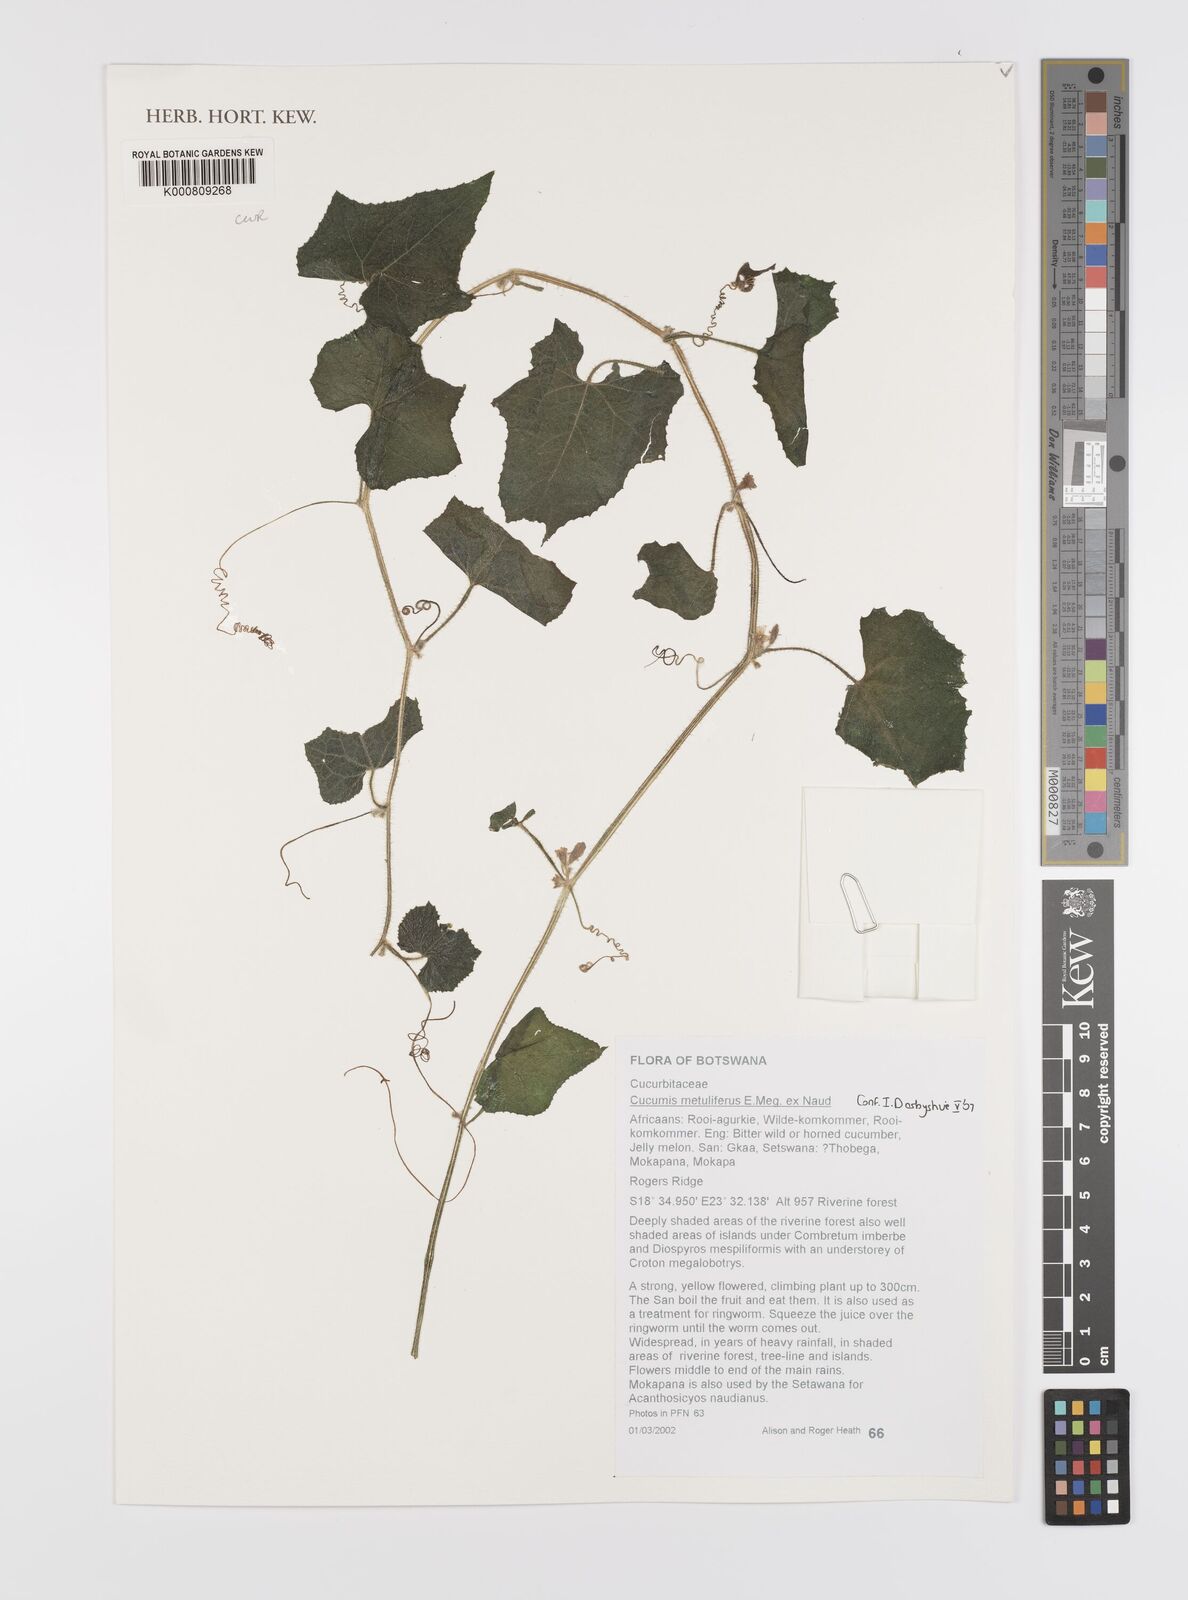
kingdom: Plantae
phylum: Tracheophyta
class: Magnoliopsida
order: Cucurbitales
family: Cucurbitaceae
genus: Cucumis
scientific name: Cucumis
